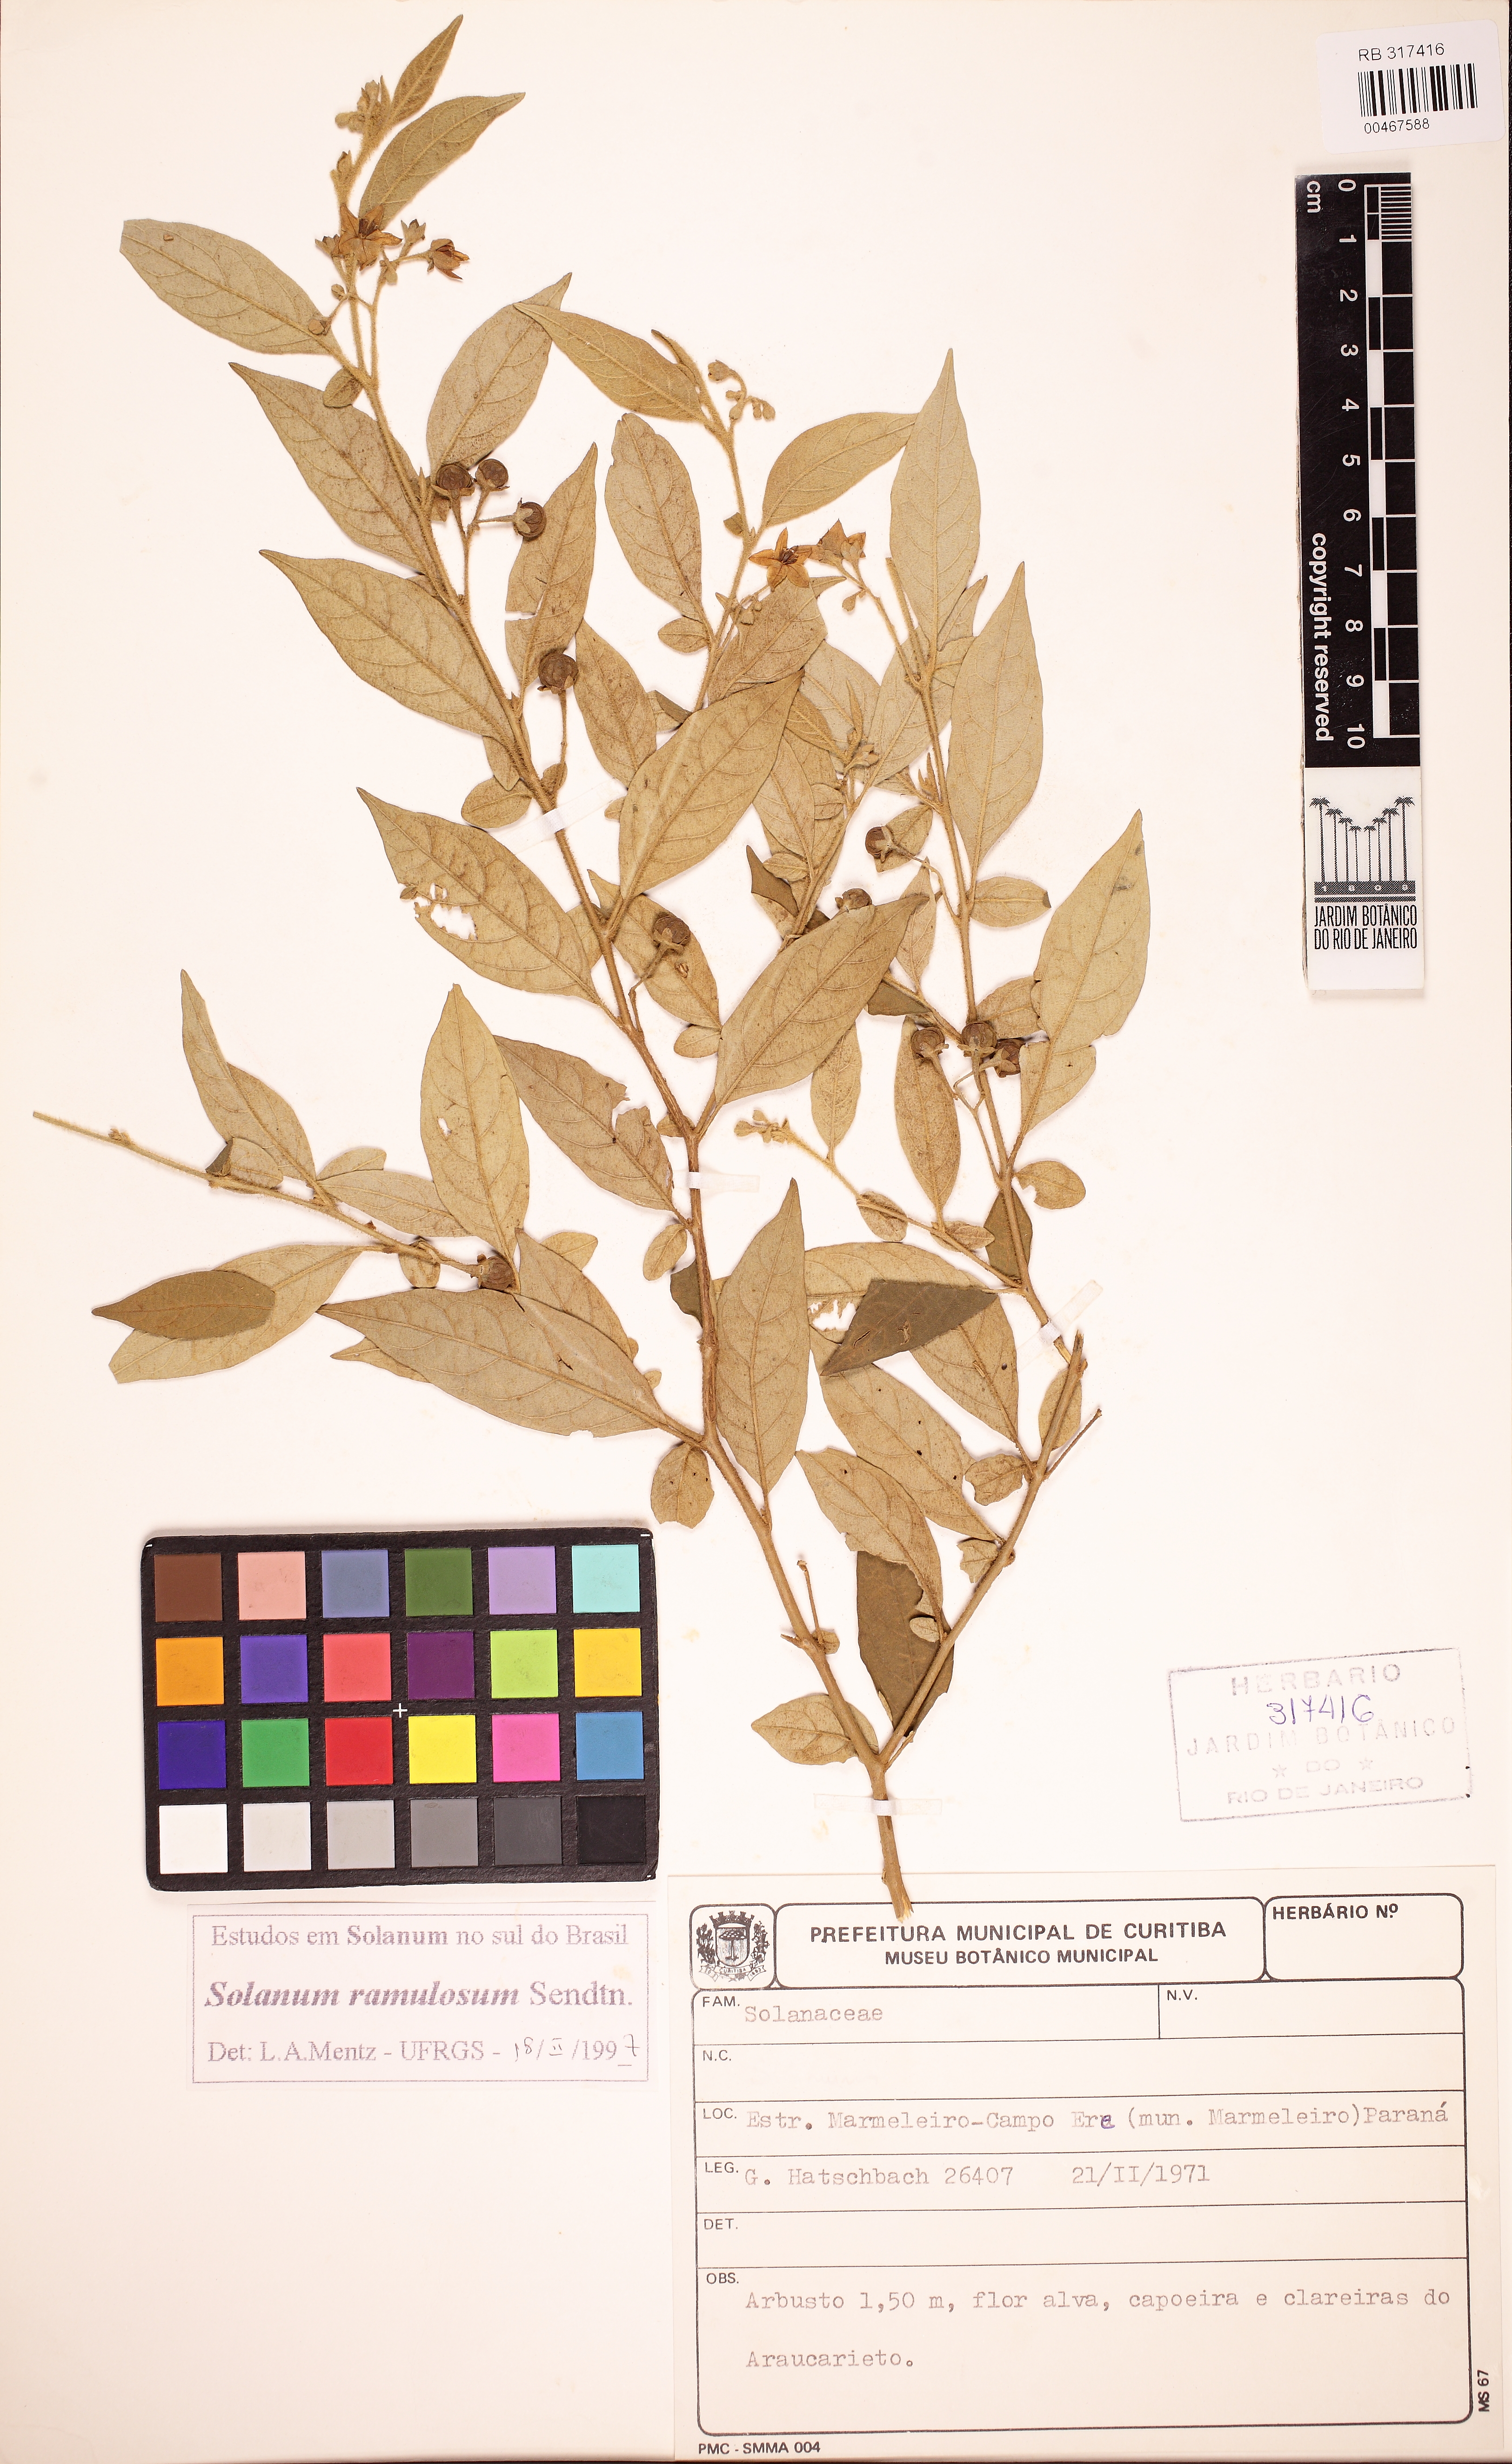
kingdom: Plantae
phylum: Tracheophyta
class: Magnoliopsida
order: Solanales
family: Solanaceae
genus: Solanum
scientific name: Solanum ramulosum
